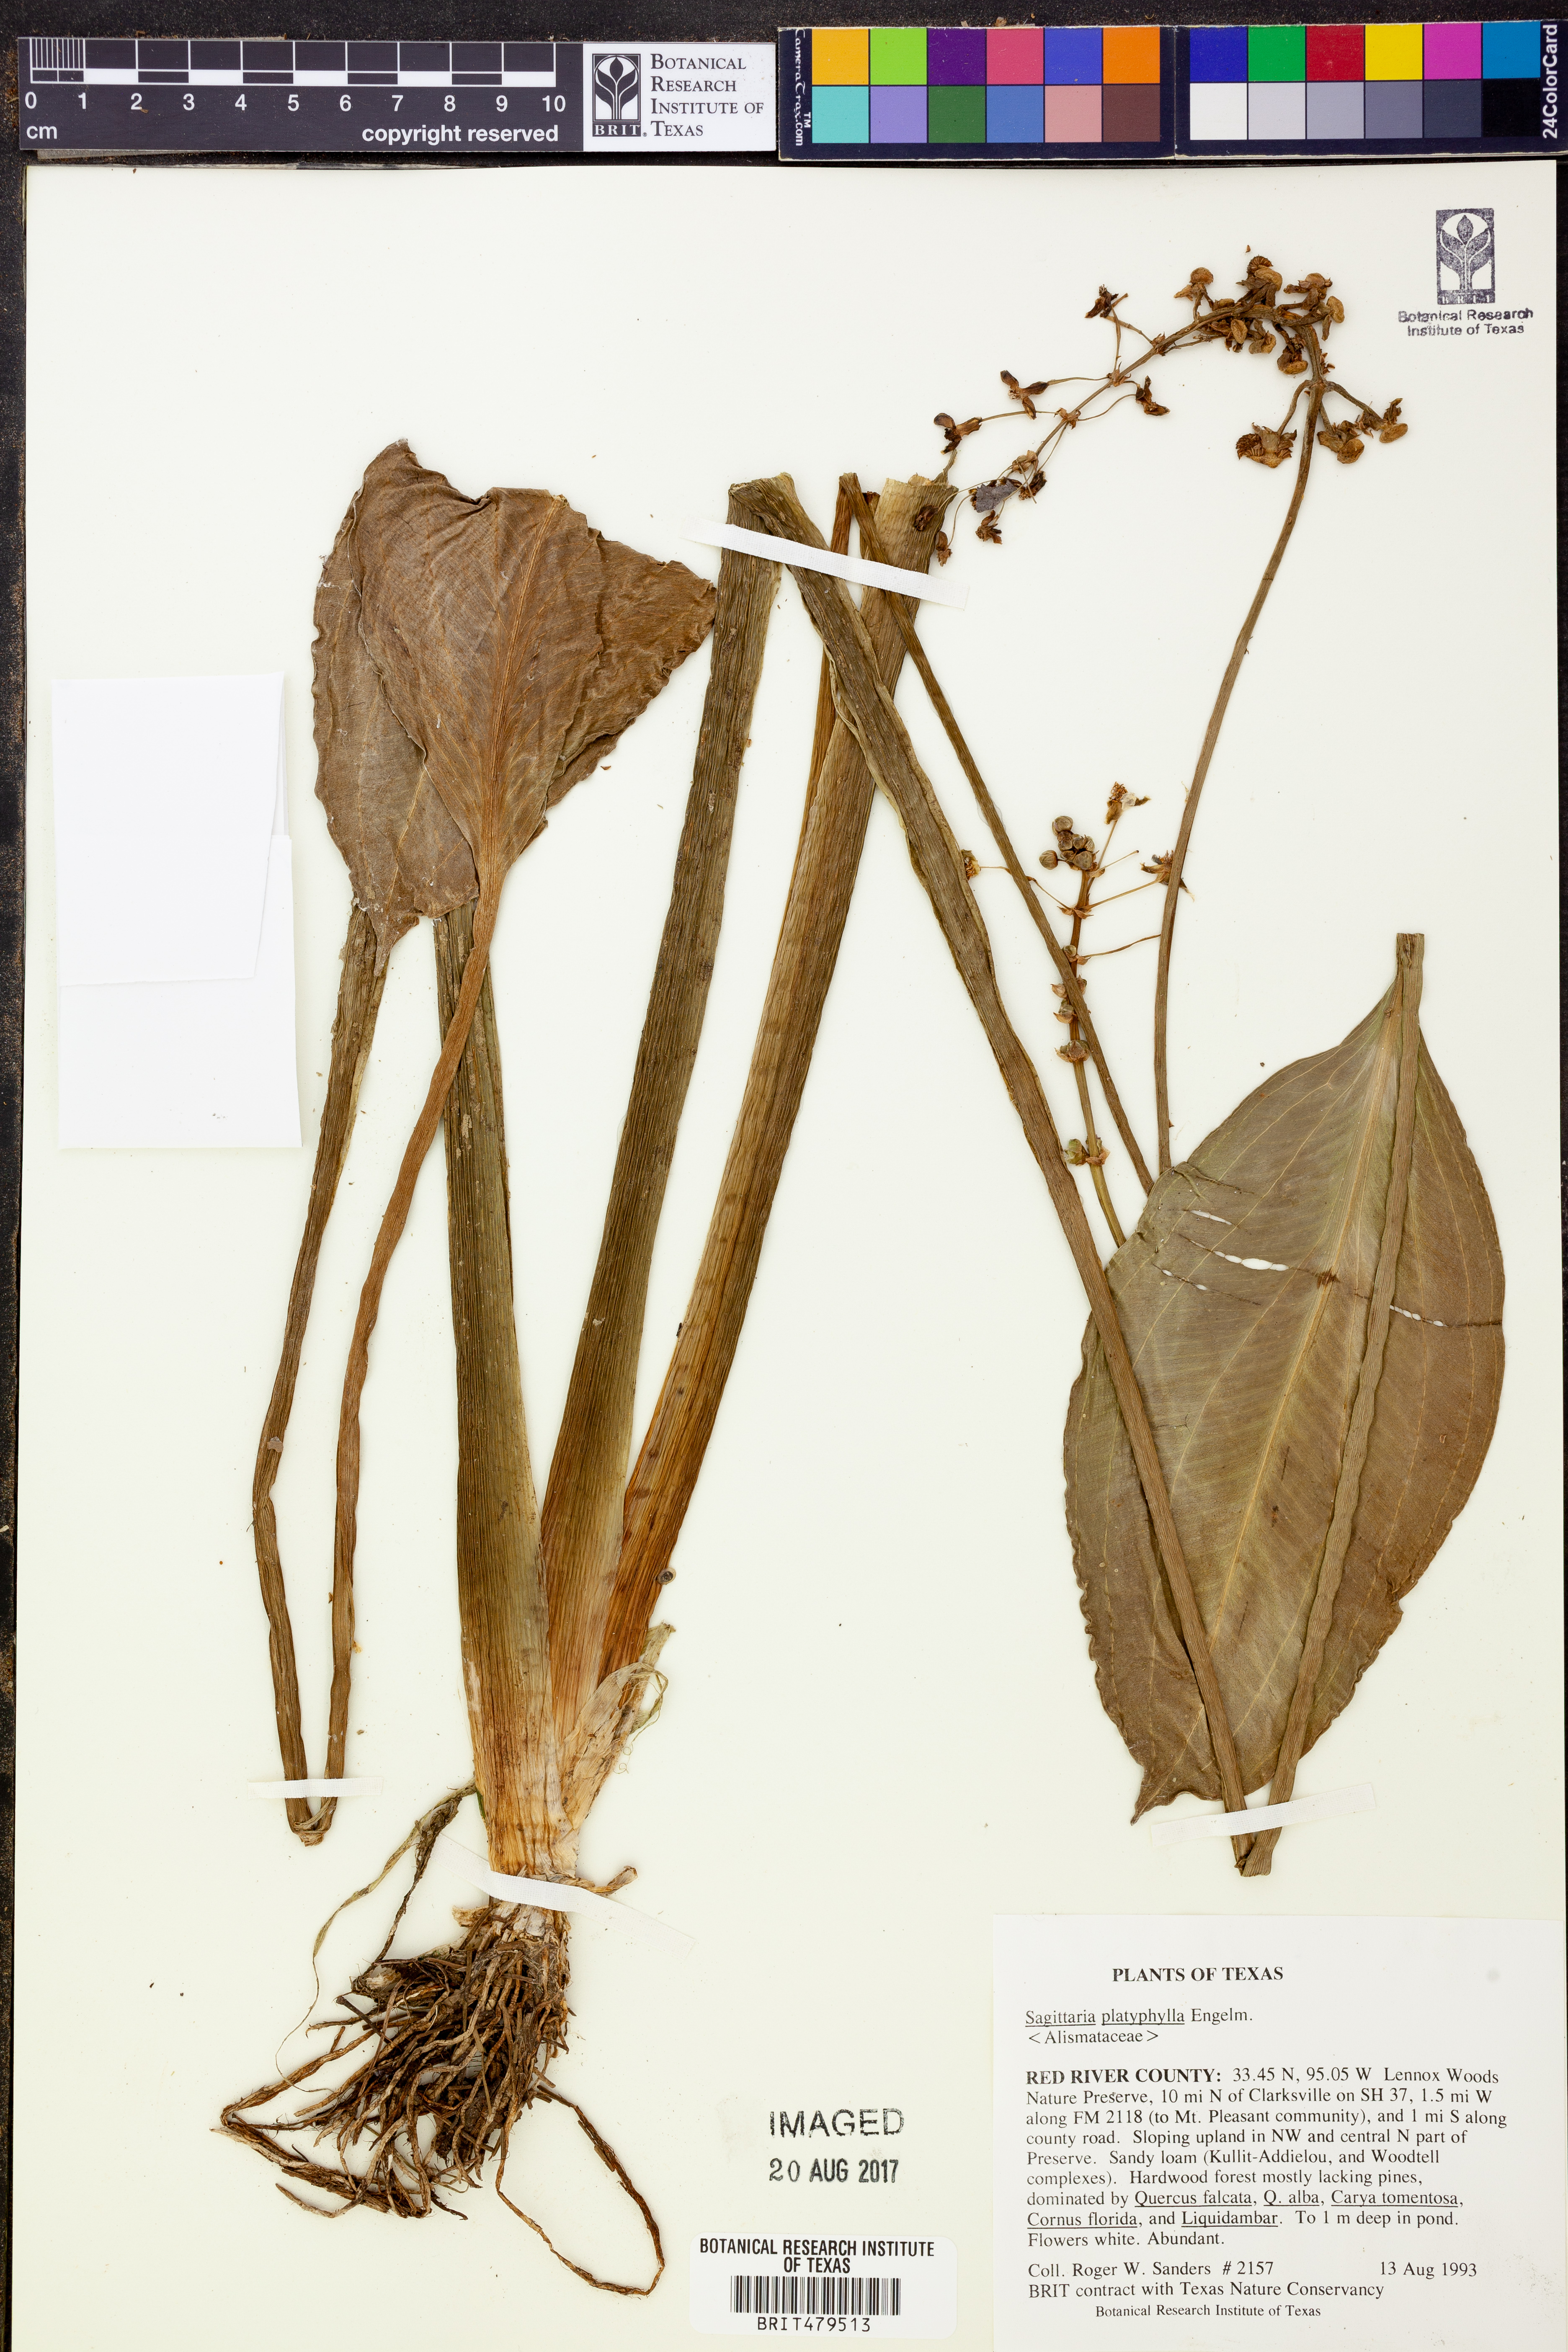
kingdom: Plantae
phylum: Tracheophyta
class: Liliopsida
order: Alismatales
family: Alismataceae
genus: Sagittaria
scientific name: Sagittaria platyphylla
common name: Broad-leaf arrowhead
